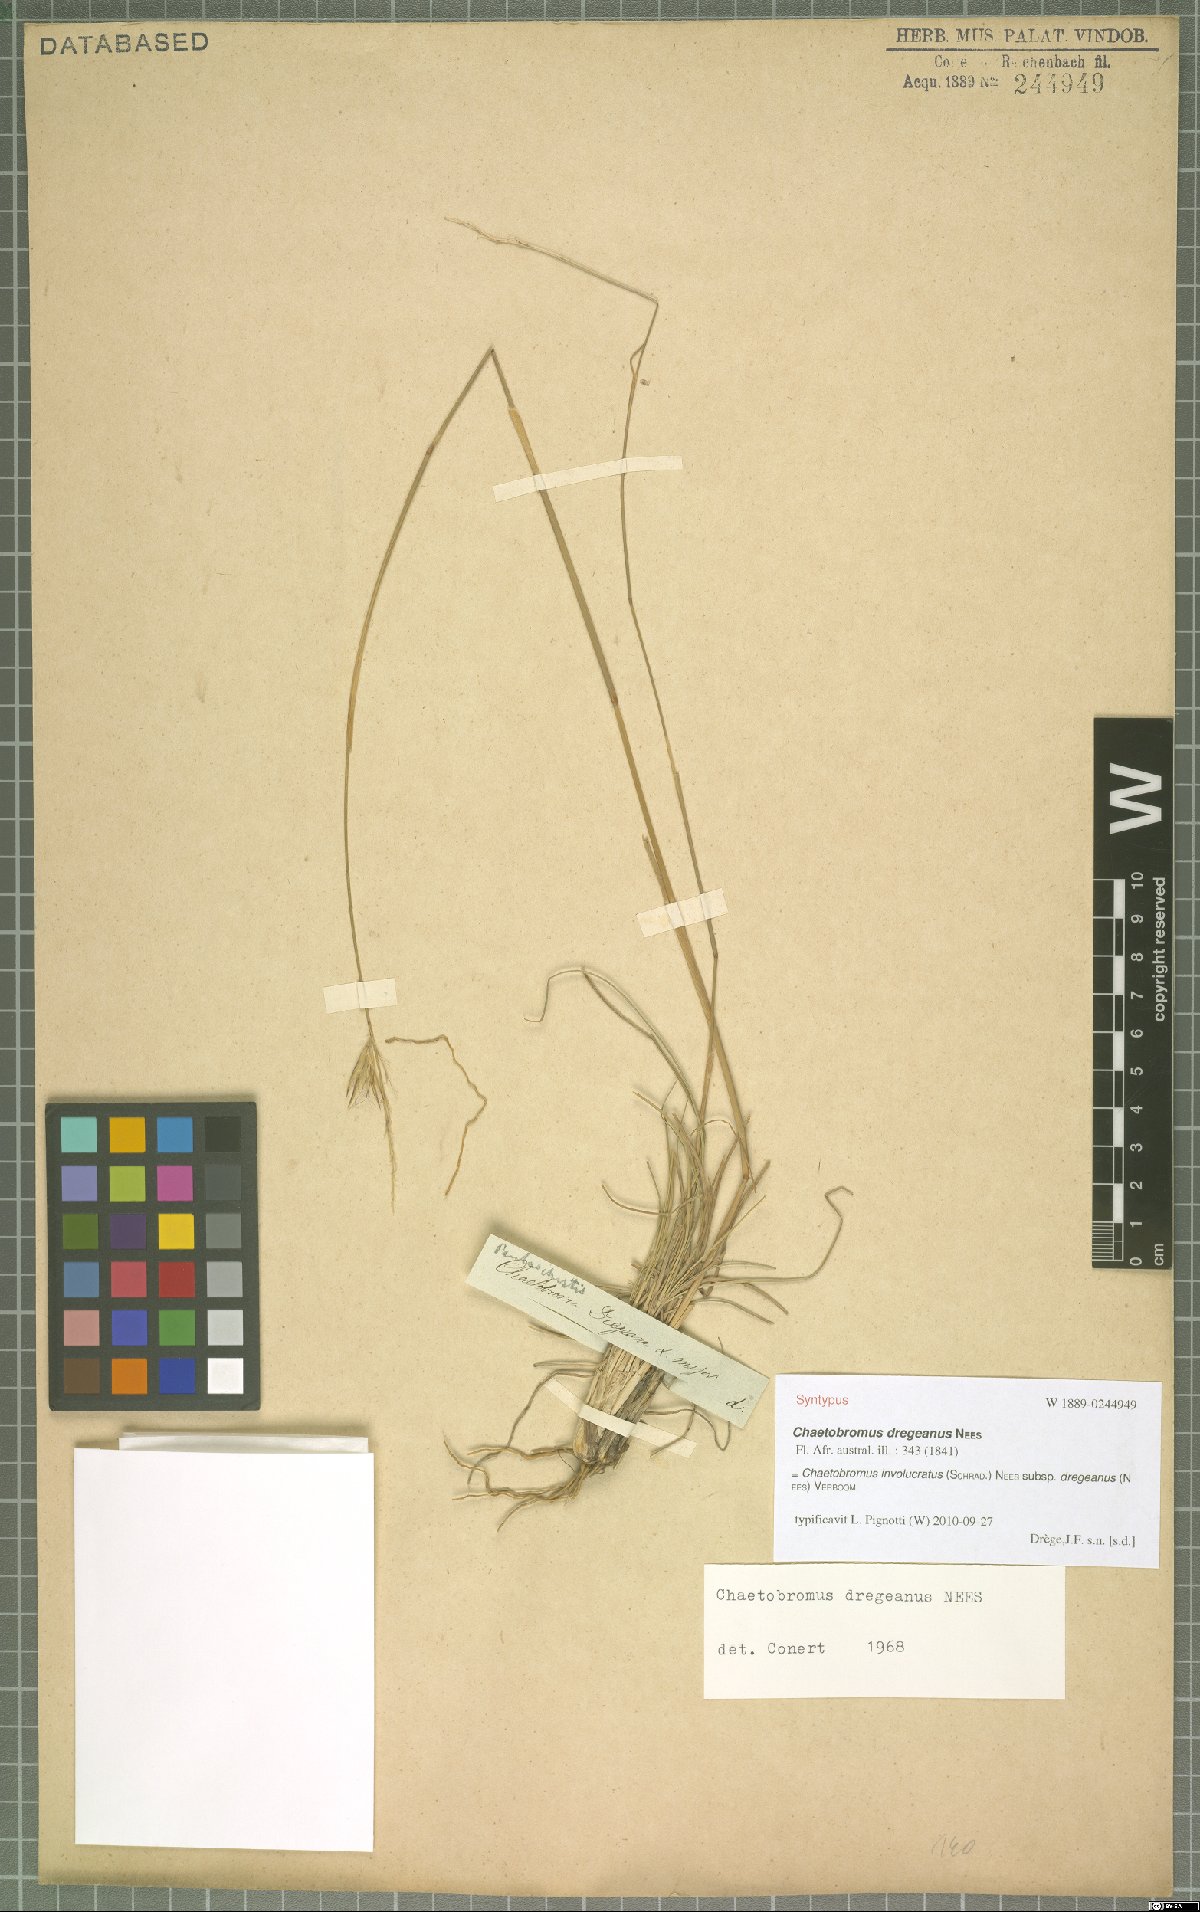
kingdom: Plantae
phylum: Tracheophyta
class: Liliopsida
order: Poales
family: Poaceae
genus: Chaetobromus
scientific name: Chaetobromus involucratus
